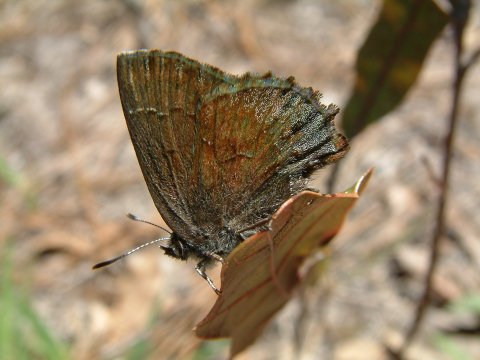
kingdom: Animalia
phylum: Arthropoda
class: Insecta
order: Lepidoptera
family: Lycaenidae
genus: Thecla
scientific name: Thecla irus
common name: Frosted Elfin
